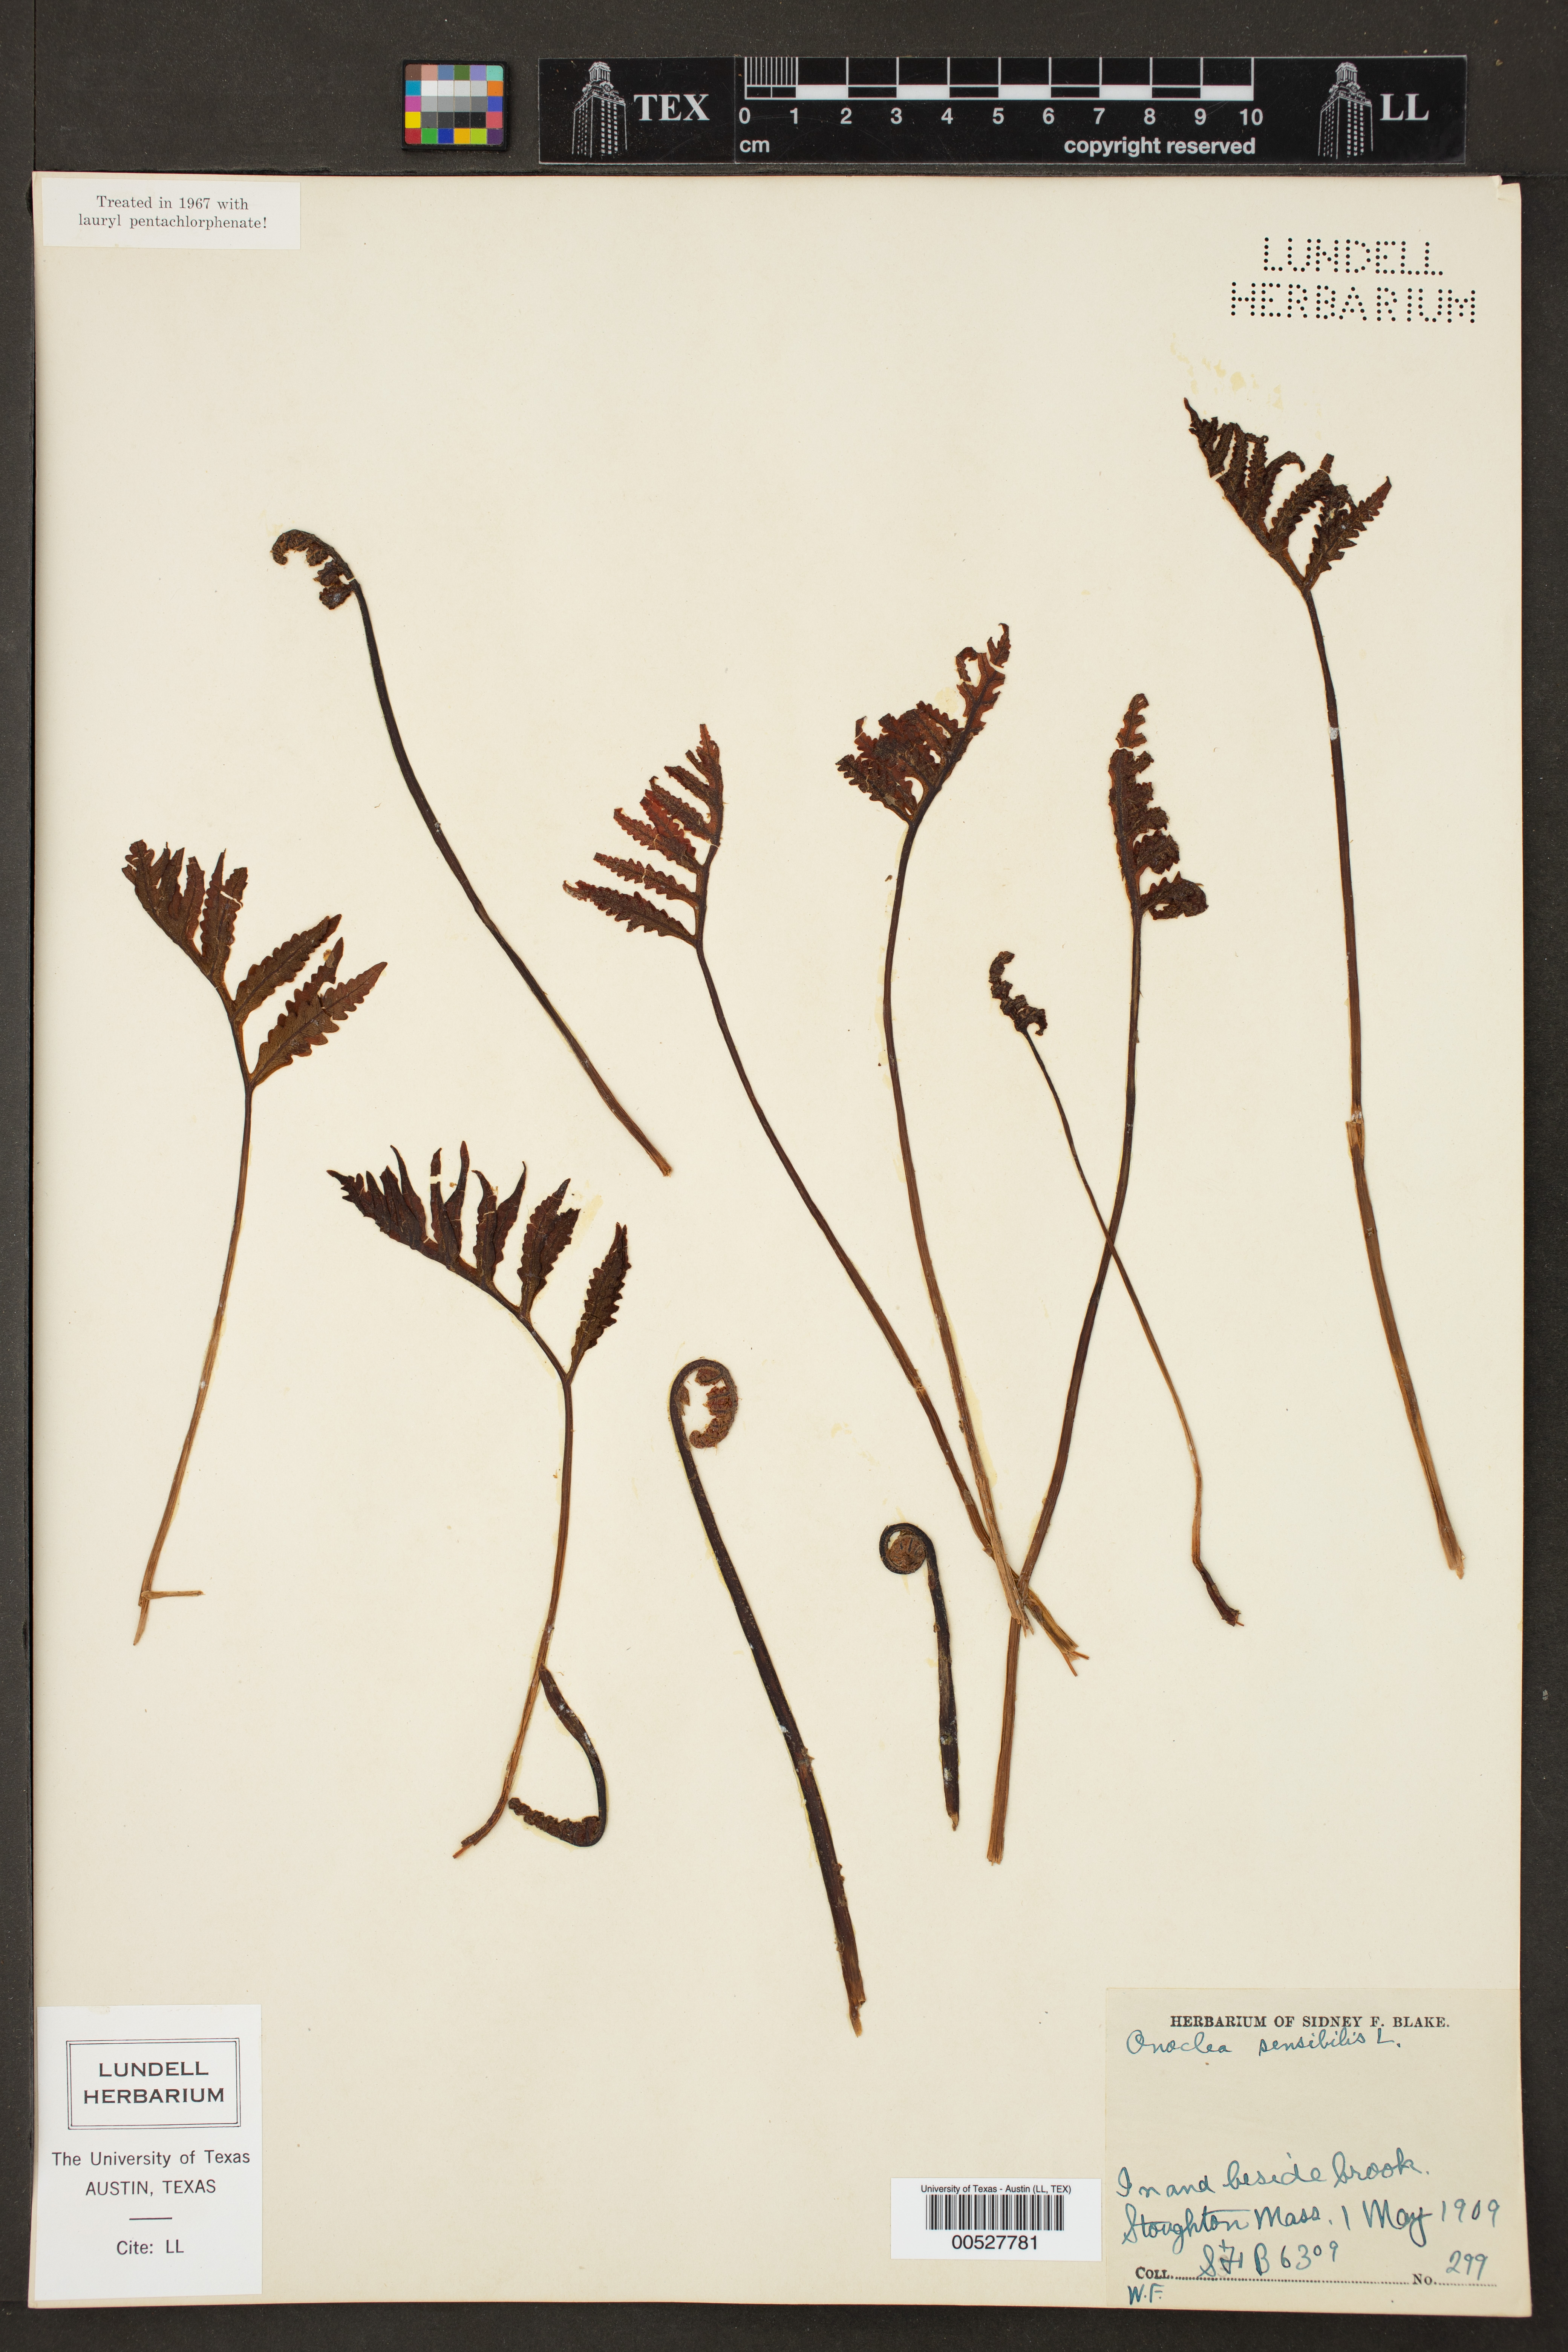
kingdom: Plantae
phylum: Tracheophyta
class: Polypodiopsida
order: Polypodiales
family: Onocleaceae
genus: Onoclea
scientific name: Onoclea sensibilis
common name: Sensitive fern
